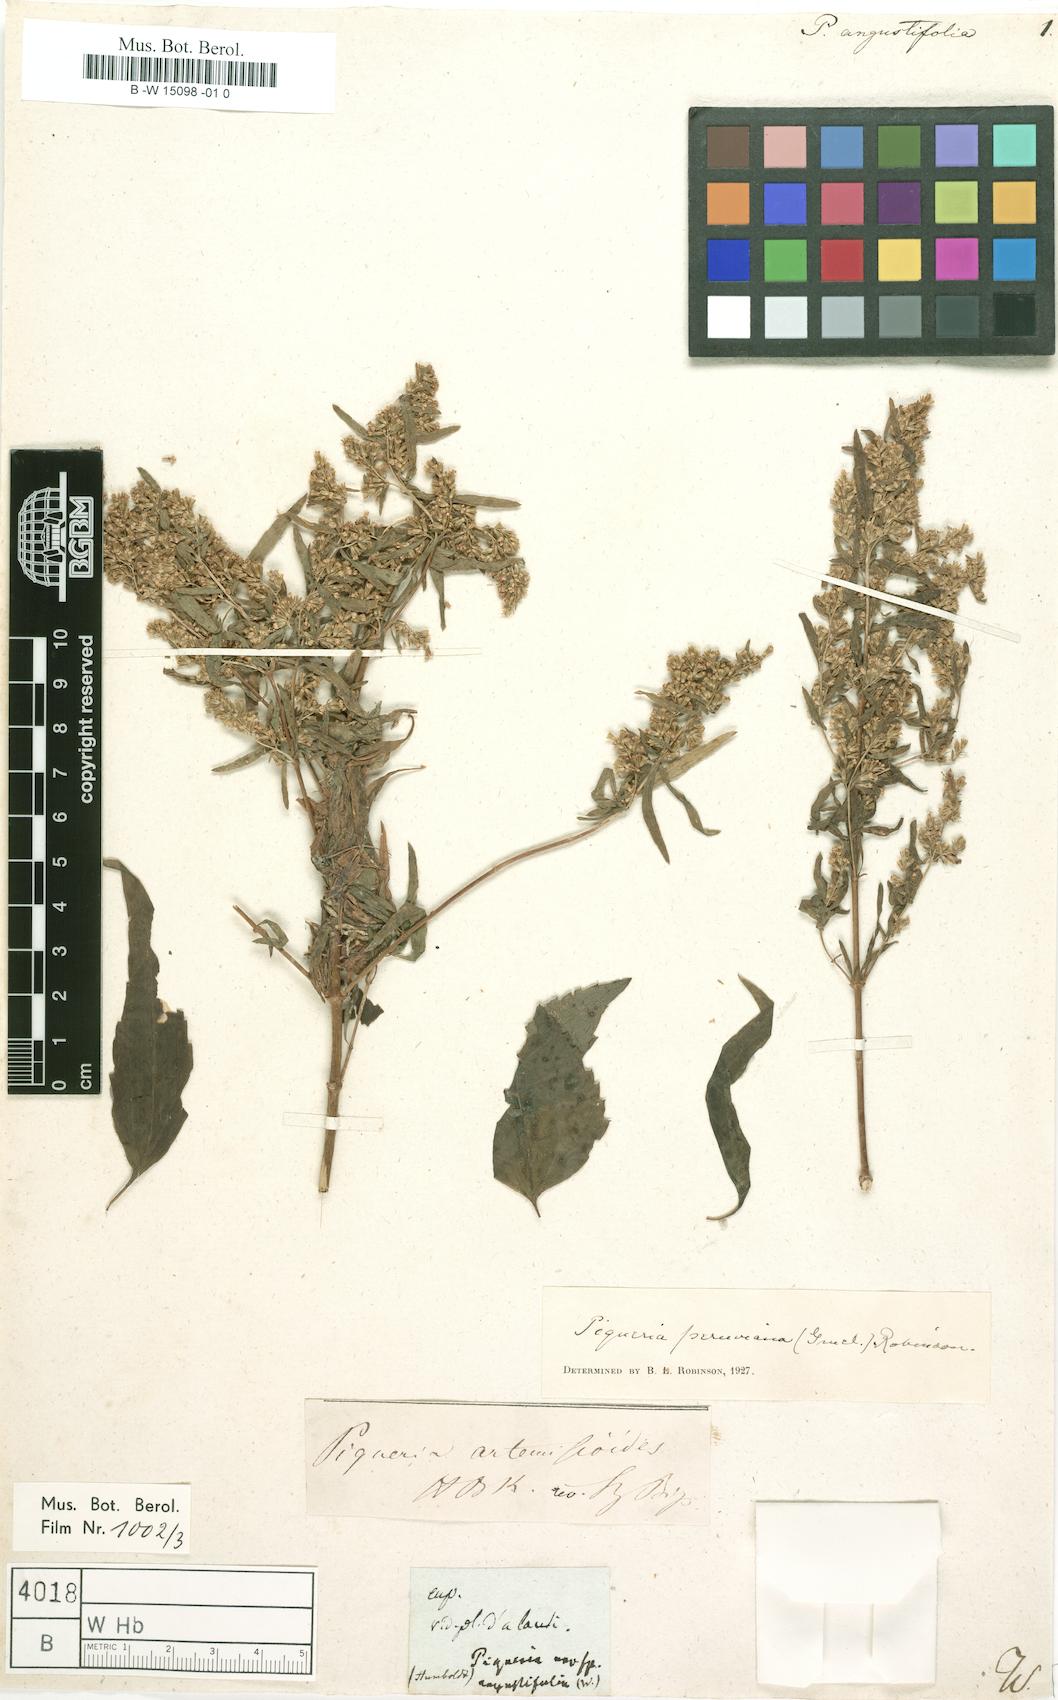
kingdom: Plantae
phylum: Tracheophyta
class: Magnoliopsida
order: Asterales
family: Asteraceae
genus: Piqueria
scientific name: Piqueria
